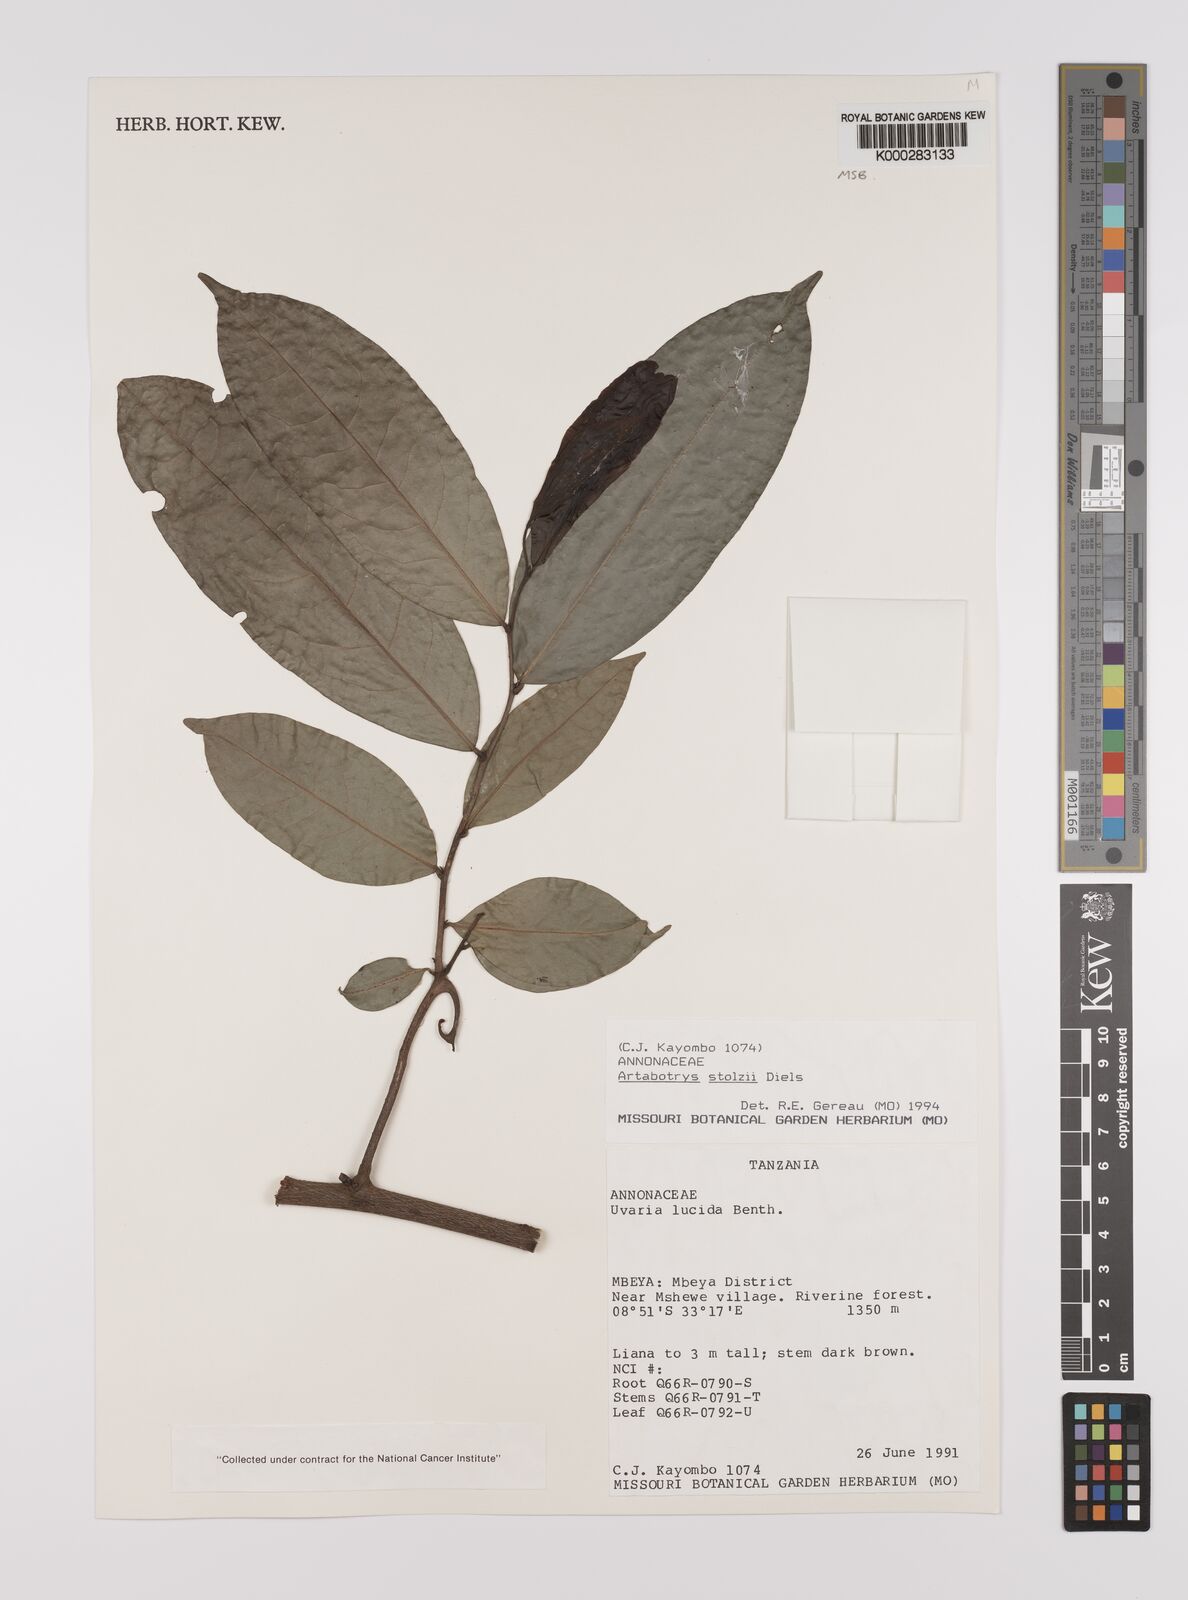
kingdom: Plantae
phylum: Tracheophyta
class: Magnoliopsida
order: Magnoliales
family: Annonaceae
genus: Artabotrys
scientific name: Artabotrys stolzii
